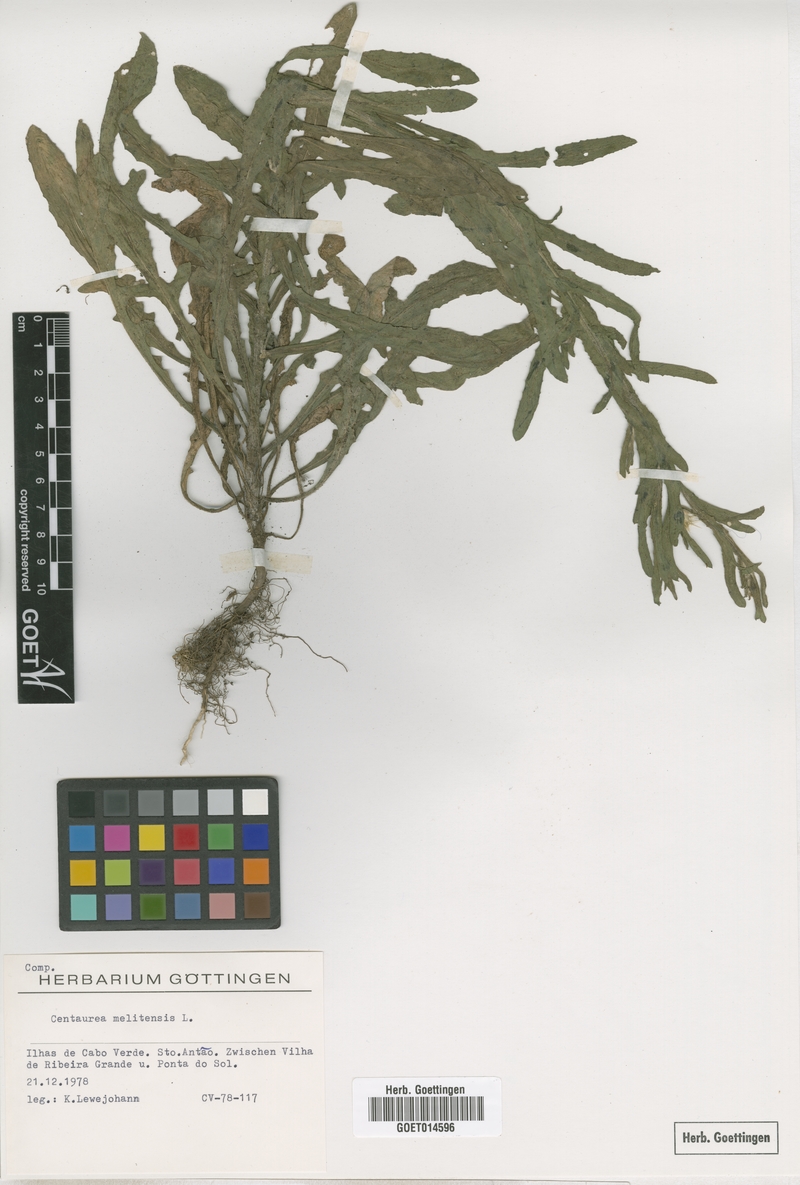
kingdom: Plantae
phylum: Tracheophyta
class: Magnoliopsida
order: Asterales
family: Asteraceae
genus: Centaurea
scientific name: Centaurea melitensis
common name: Maltese star-thistle
